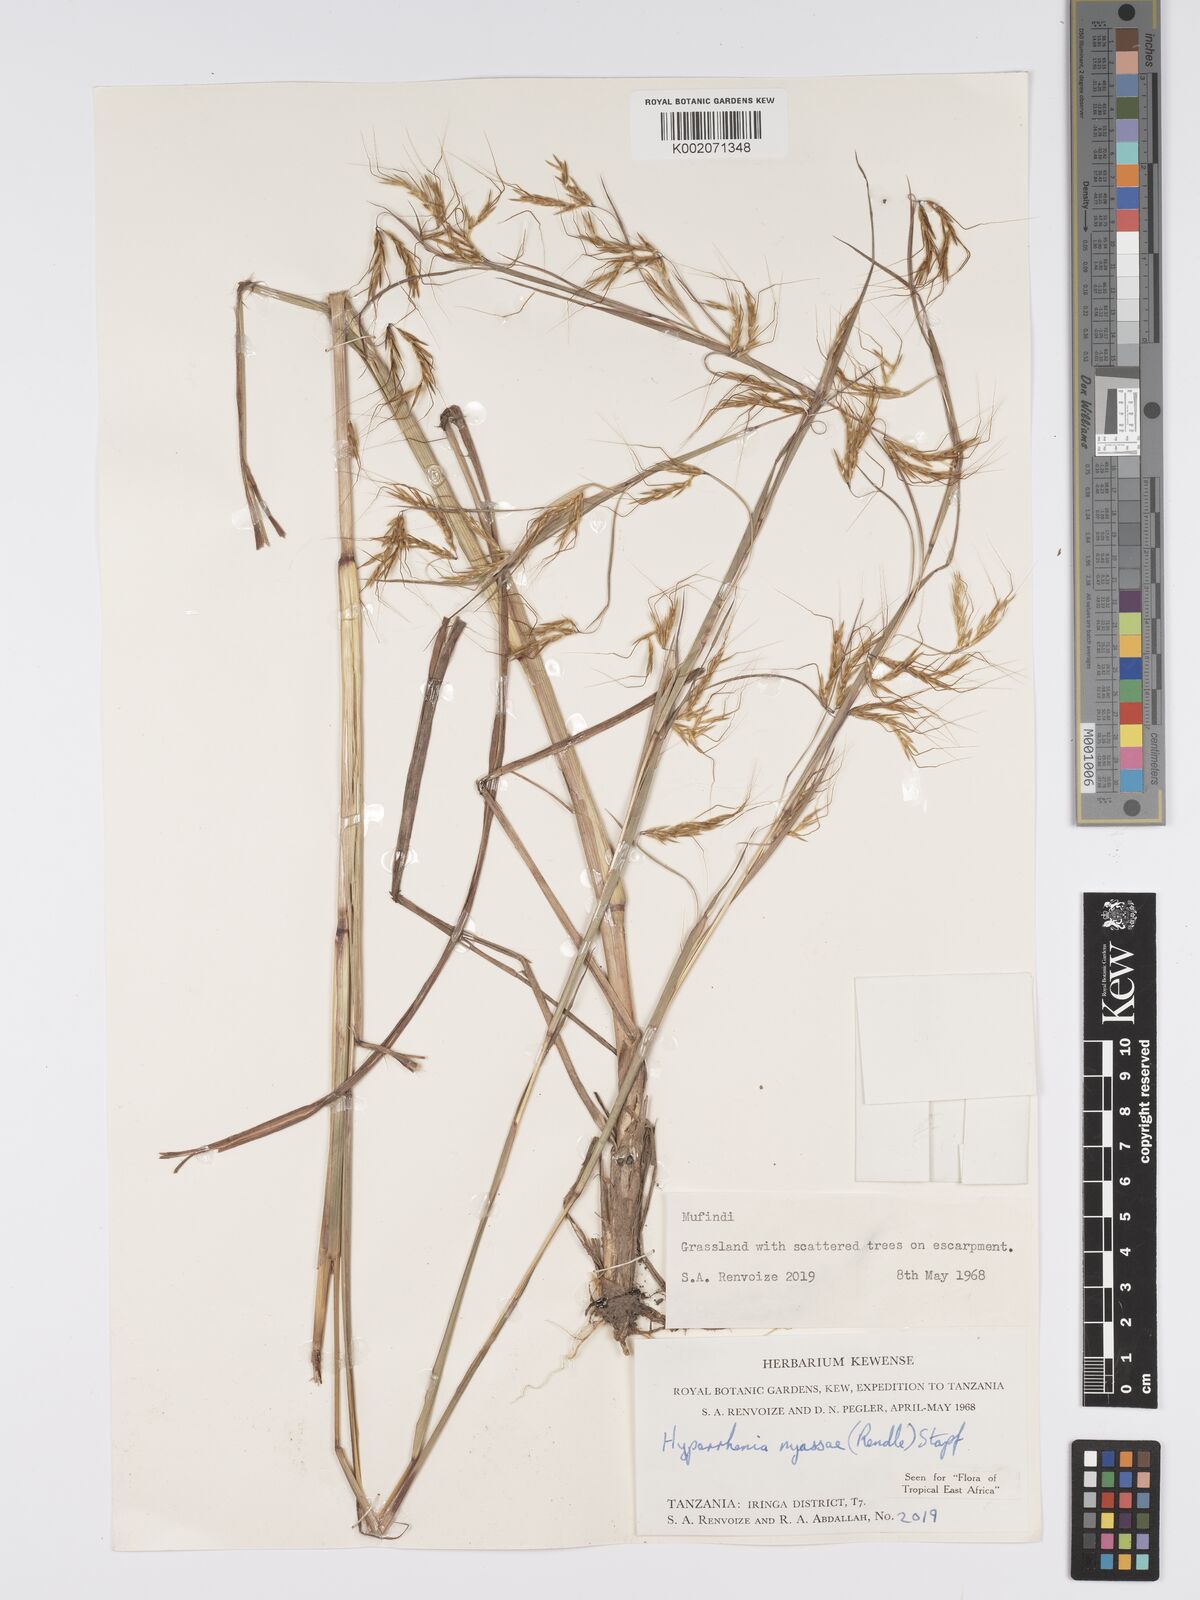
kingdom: Plantae
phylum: Tracheophyta
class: Liliopsida
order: Poales
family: Poaceae
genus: Hyparrhenia
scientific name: Hyparrhenia nyassae
